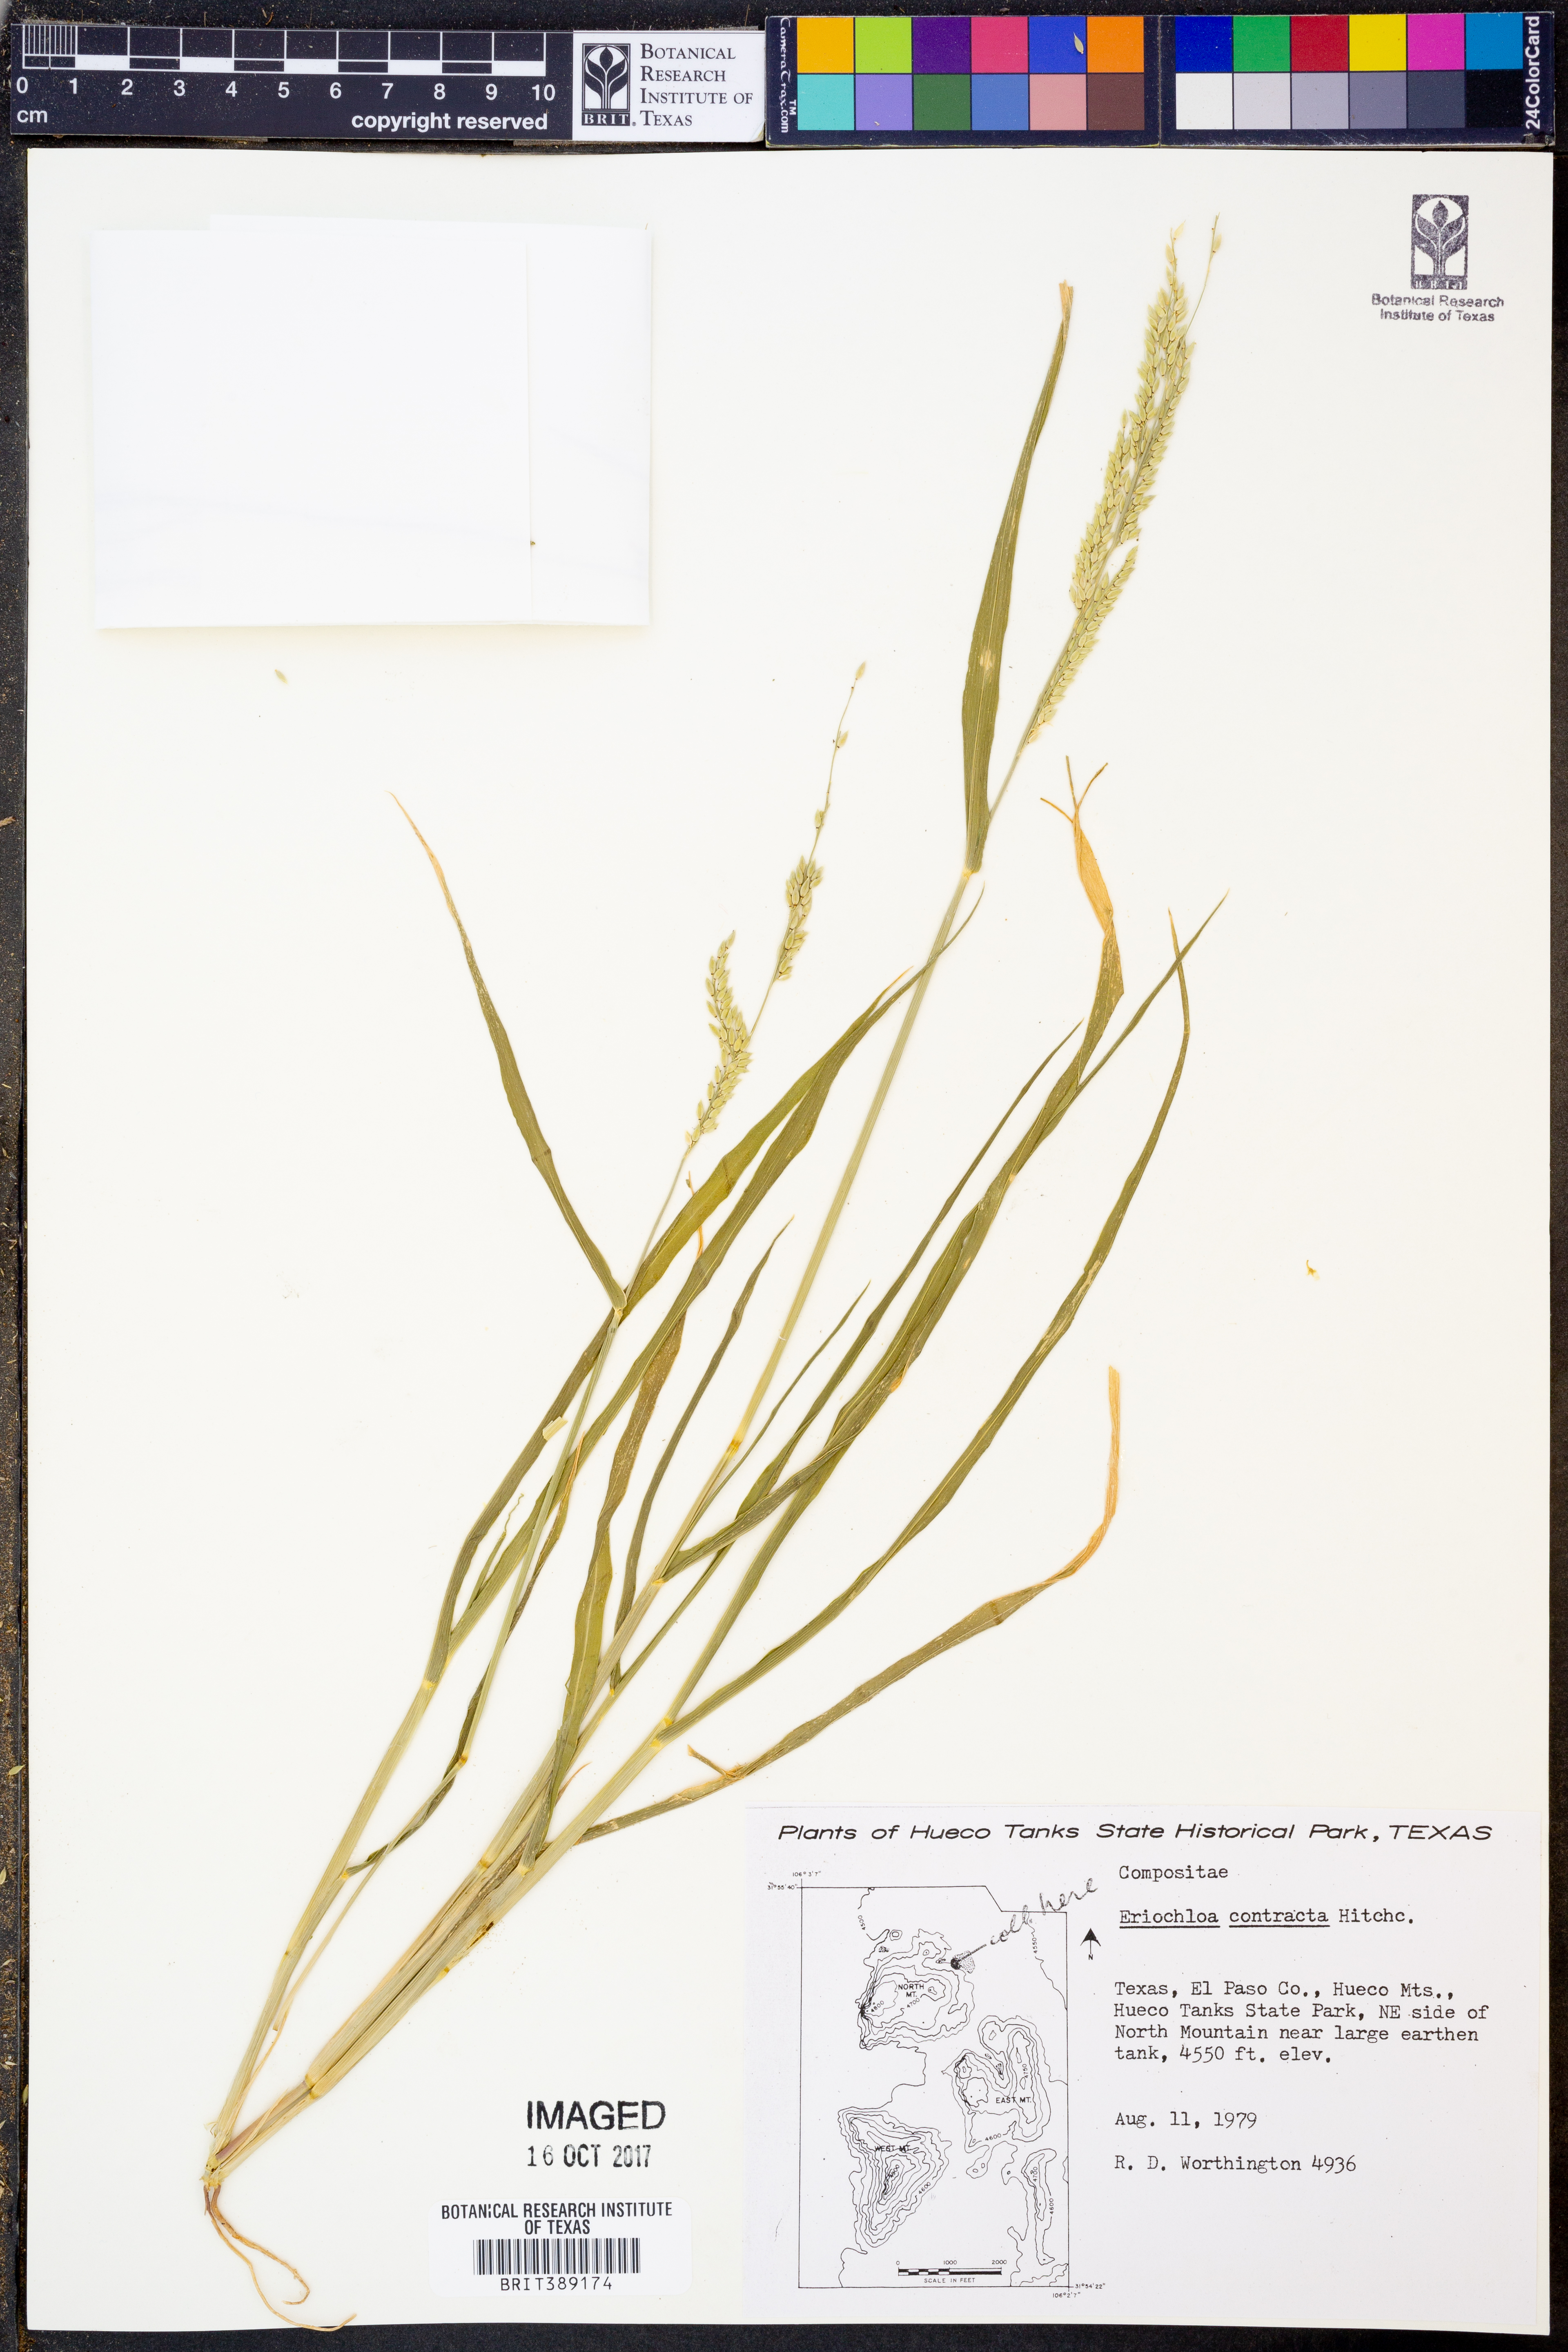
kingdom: Plantae
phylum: Tracheophyta
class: Liliopsida
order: Poales
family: Poaceae
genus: Eriochloa
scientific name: Eriochloa contracta
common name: Prairie cup grass
